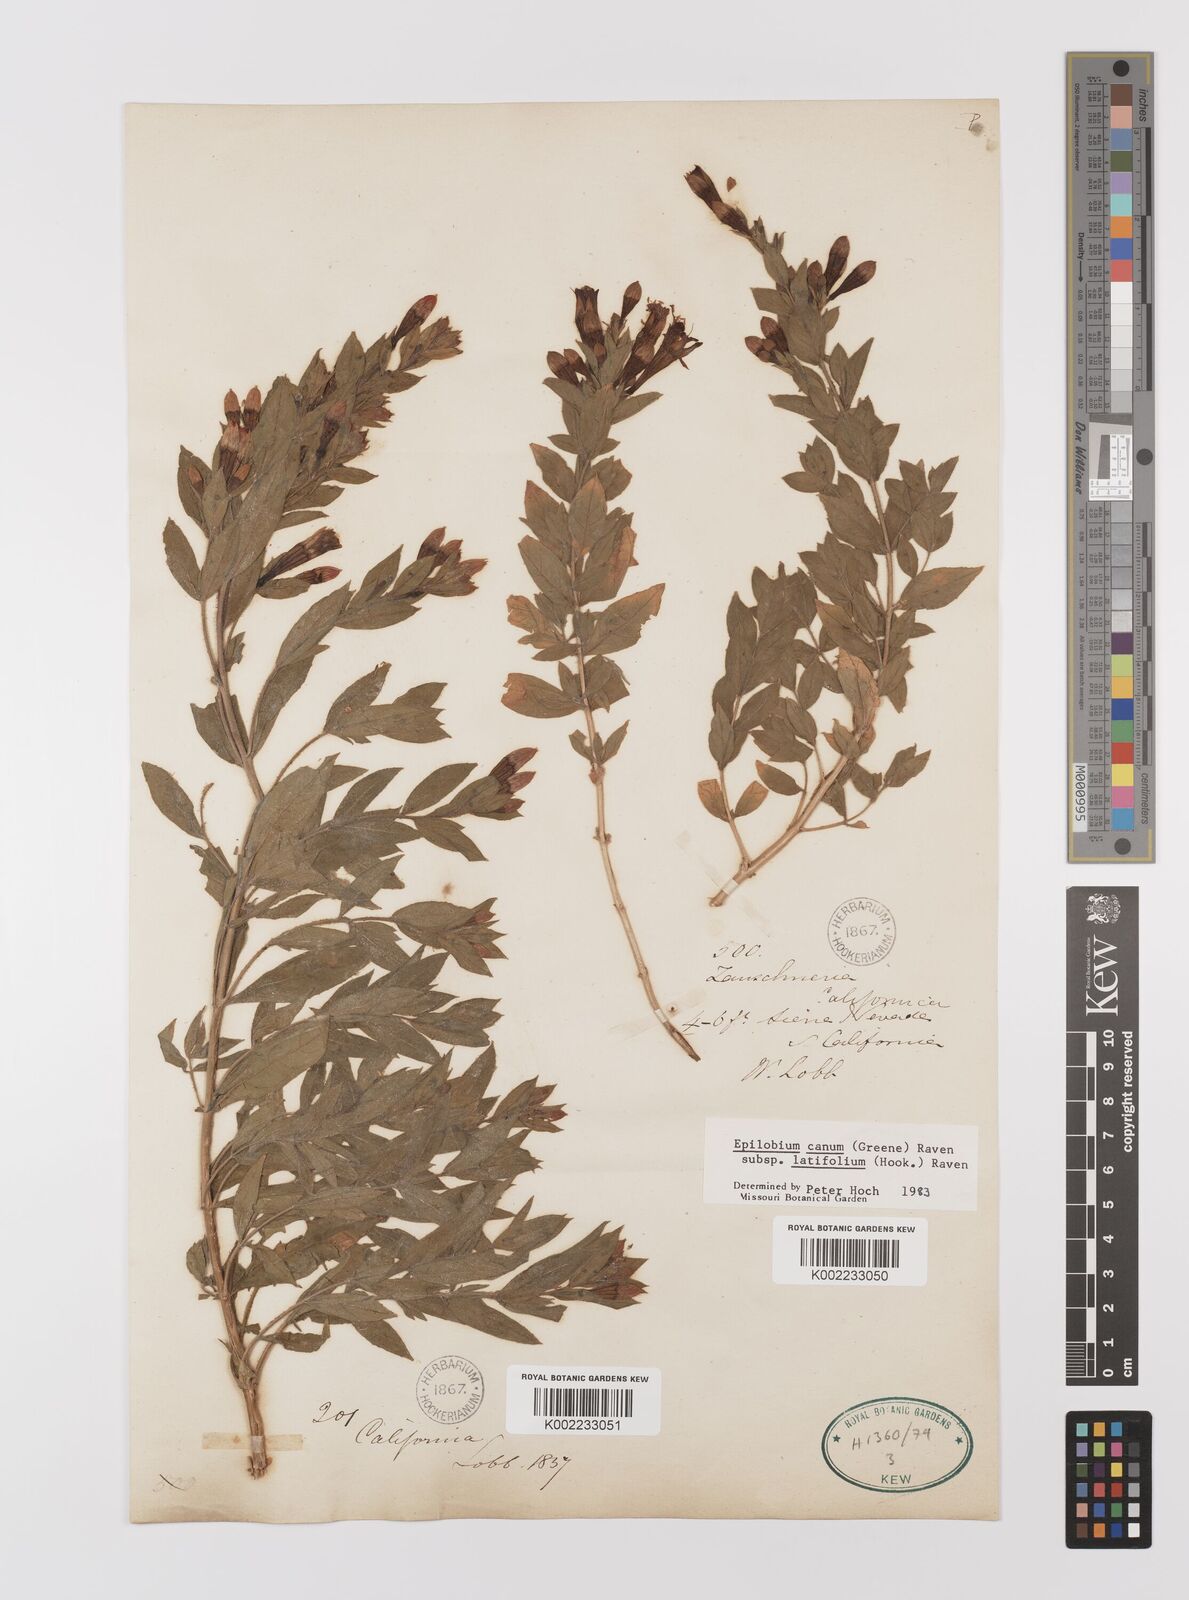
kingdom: Plantae
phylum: Tracheophyta
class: Magnoliopsida
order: Myrtales
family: Onagraceae
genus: Epilobium
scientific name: Epilobium
